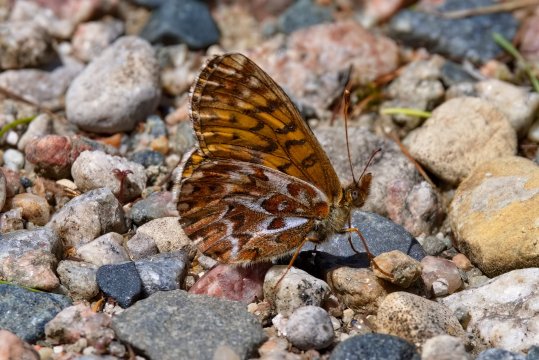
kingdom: Animalia
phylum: Arthropoda
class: Insecta
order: Lepidoptera
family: Nymphalidae
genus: Boloria
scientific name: Boloria freija
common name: Freija Fritillary
